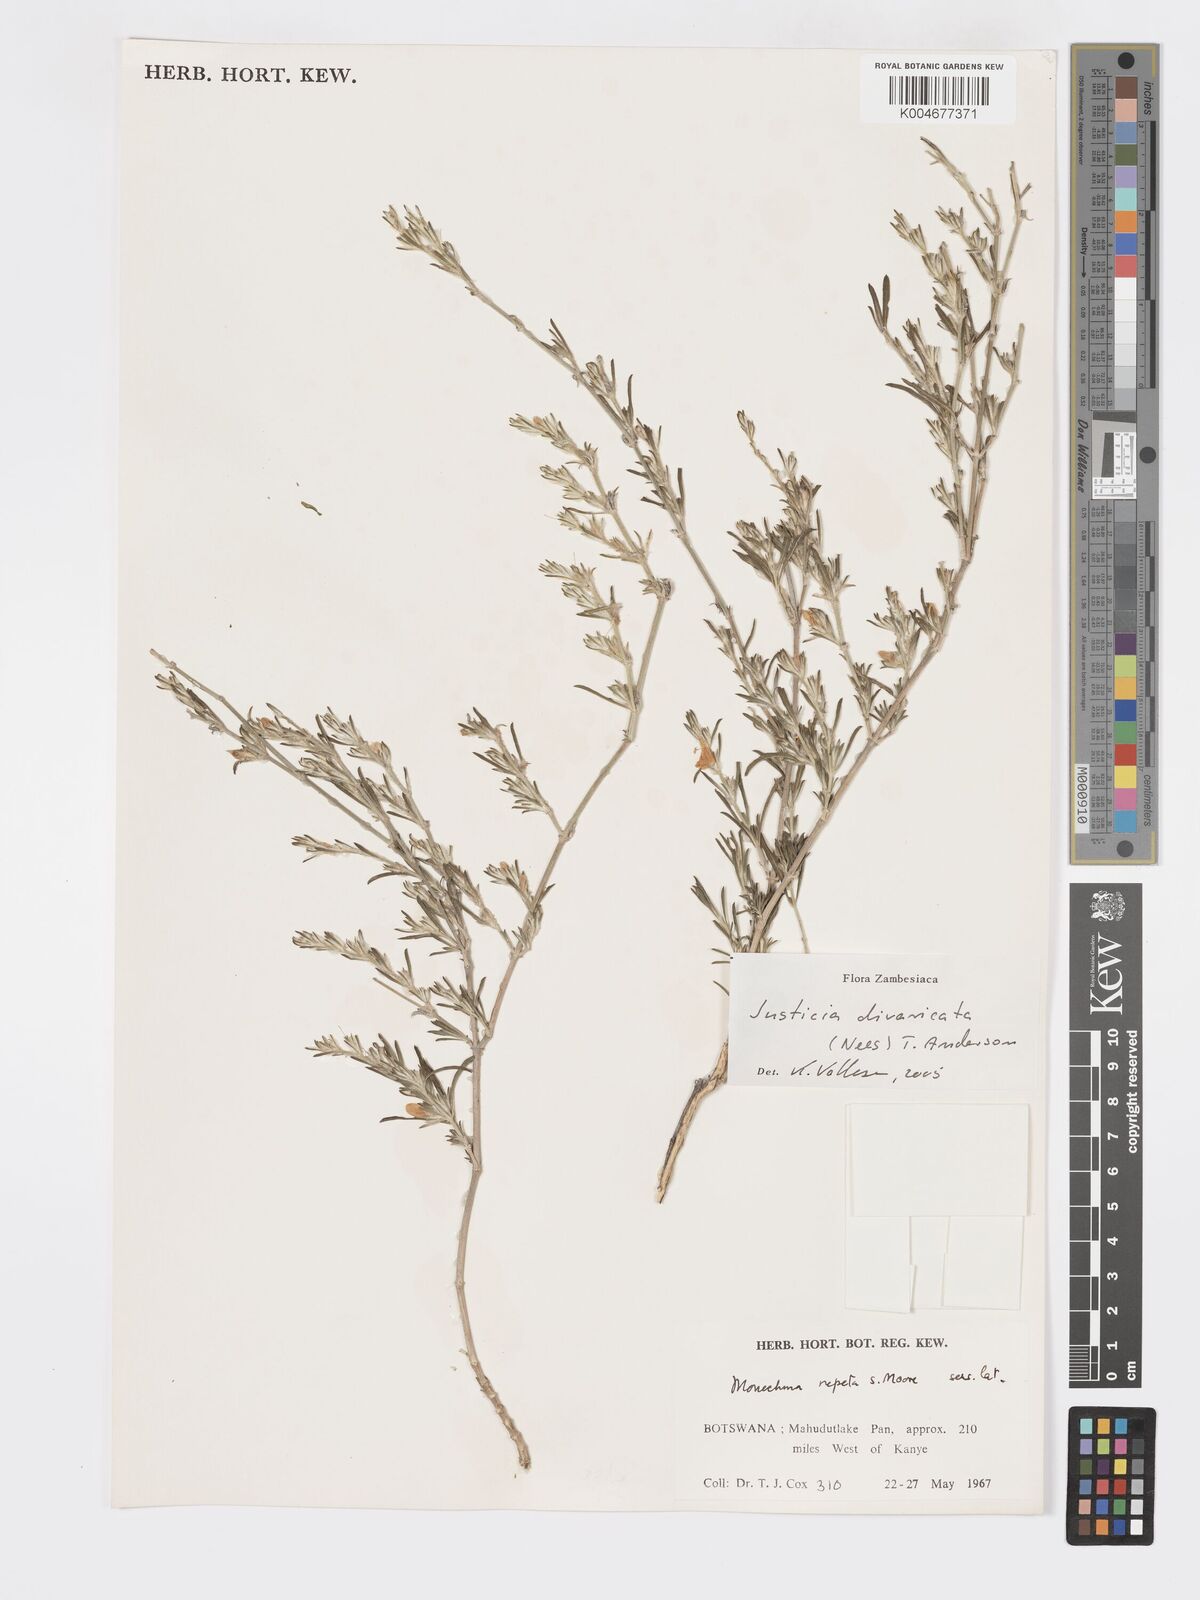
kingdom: Plantae
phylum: Tracheophyta
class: Magnoliopsida
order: Lamiales
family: Acanthaceae
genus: Pogonospermum
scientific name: Pogonospermum
